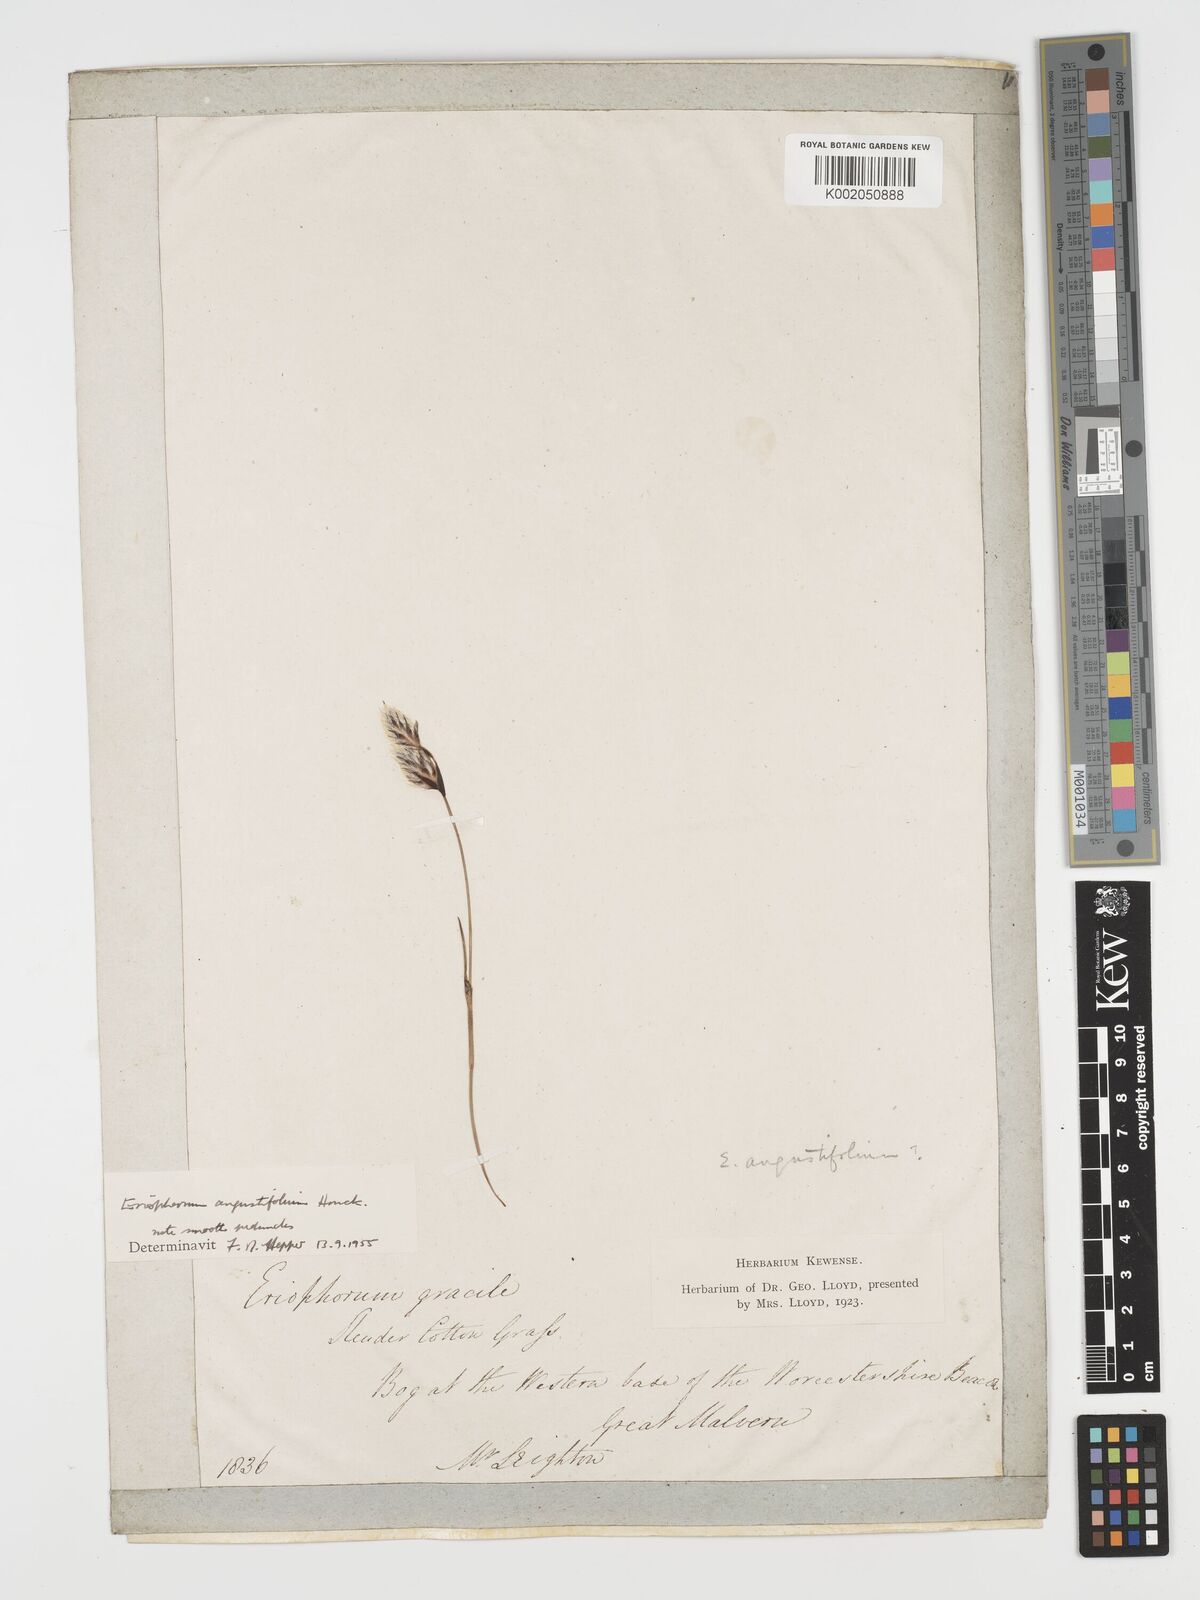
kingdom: Plantae
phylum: Tracheophyta
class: Liliopsida
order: Poales
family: Cyperaceae
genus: Eriophorum
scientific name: Eriophorum angustifolium
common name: Common cottongrass
